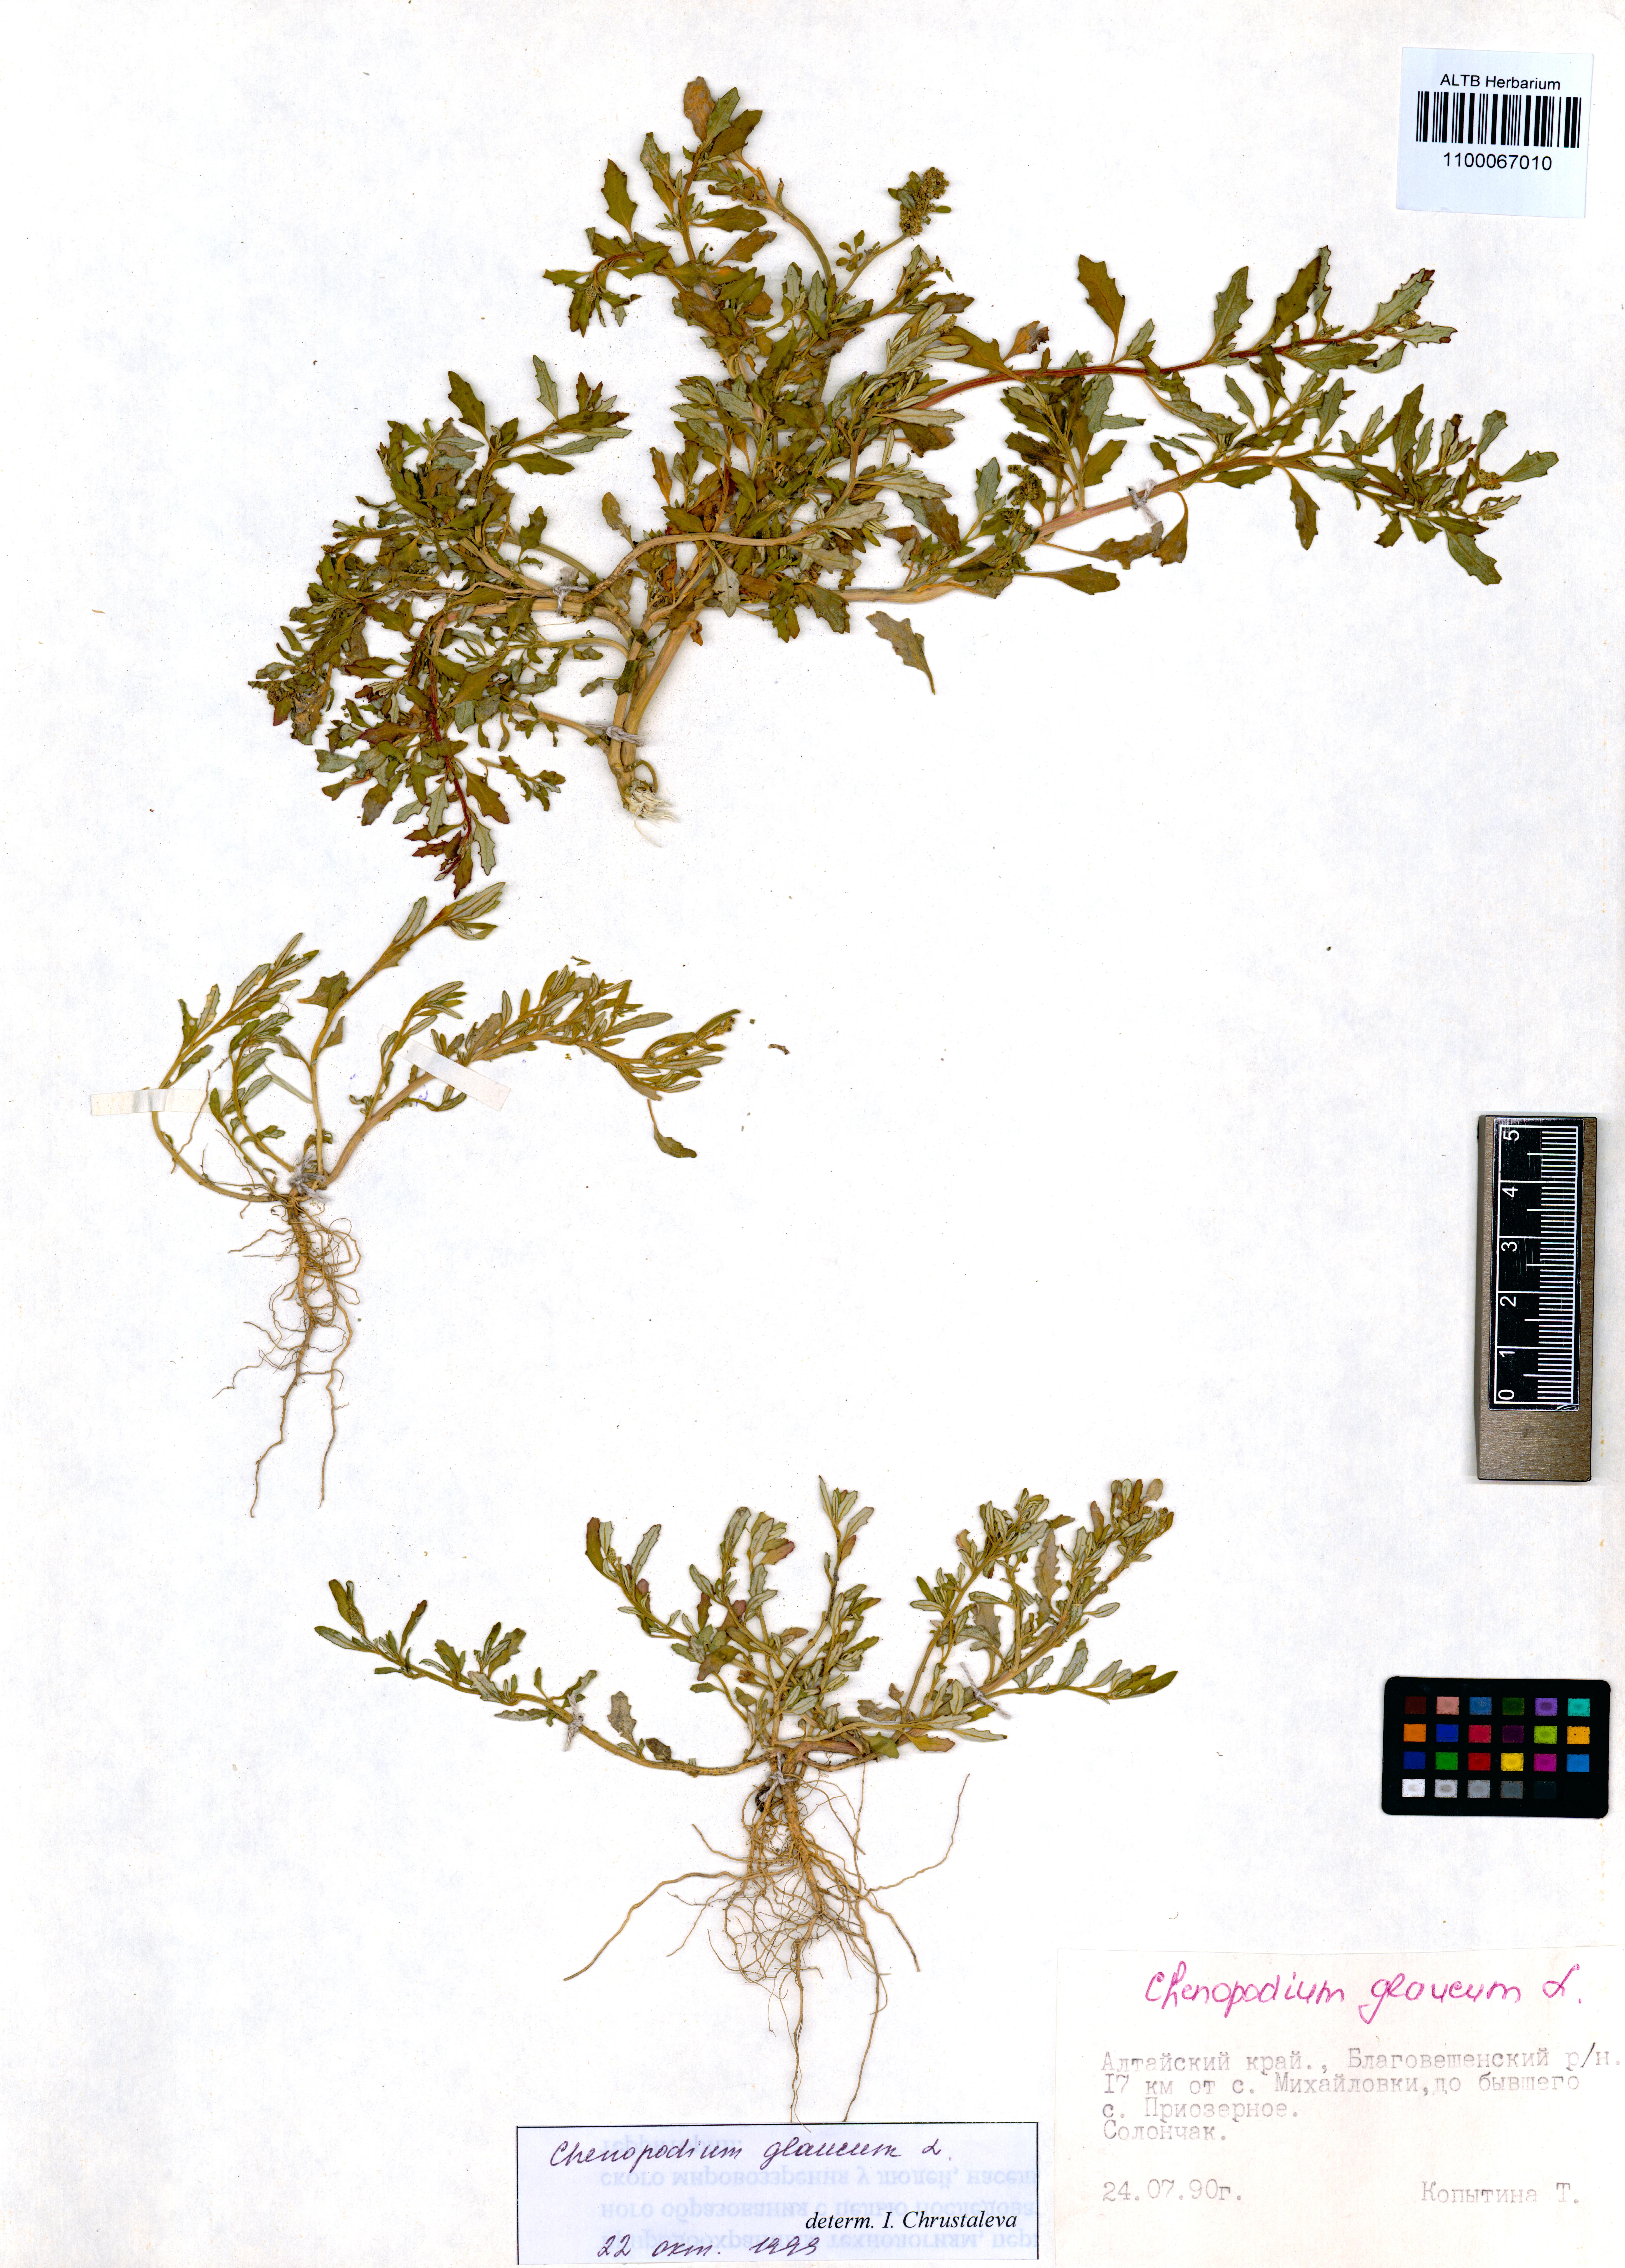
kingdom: Plantae
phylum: Tracheophyta
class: Magnoliopsida
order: Caryophyllales
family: Amaranthaceae
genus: Oxybasis
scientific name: Oxybasis glauca
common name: Glaucous goosefoot
